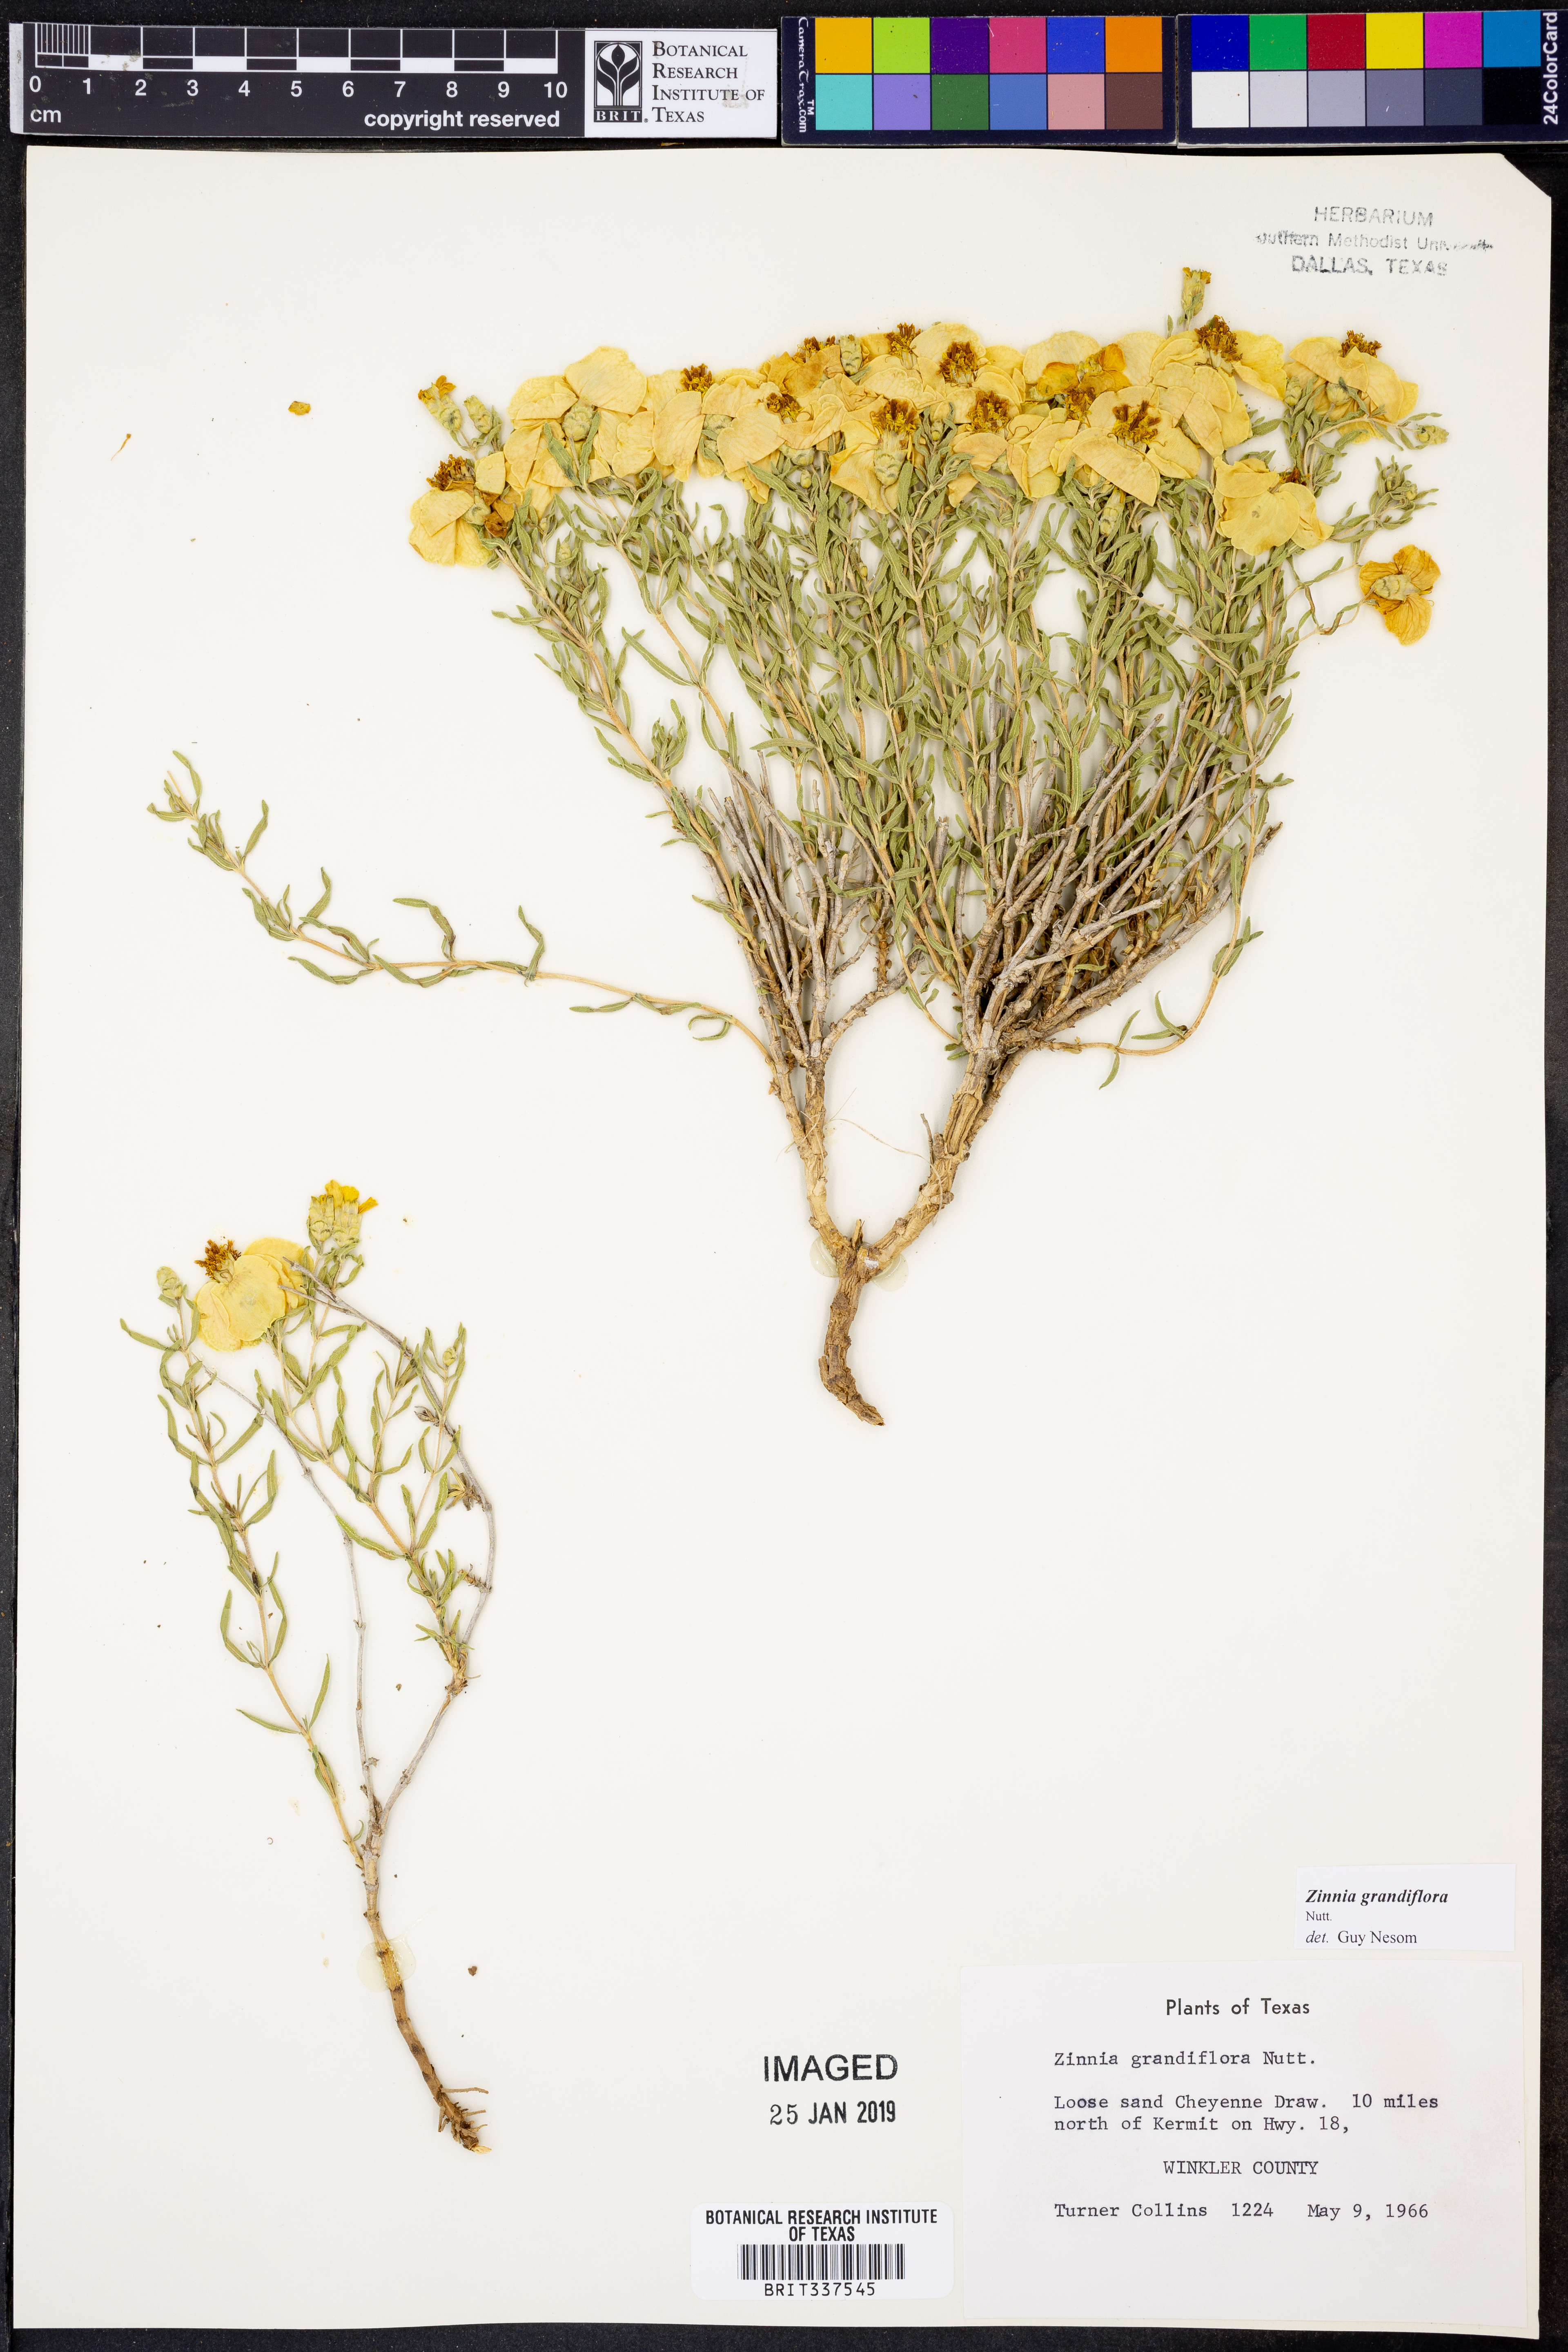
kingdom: Plantae
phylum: Tracheophyta
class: Magnoliopsida
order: Asterales
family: Asteraceae
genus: Zinnia
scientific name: Zinnia grandiflora
